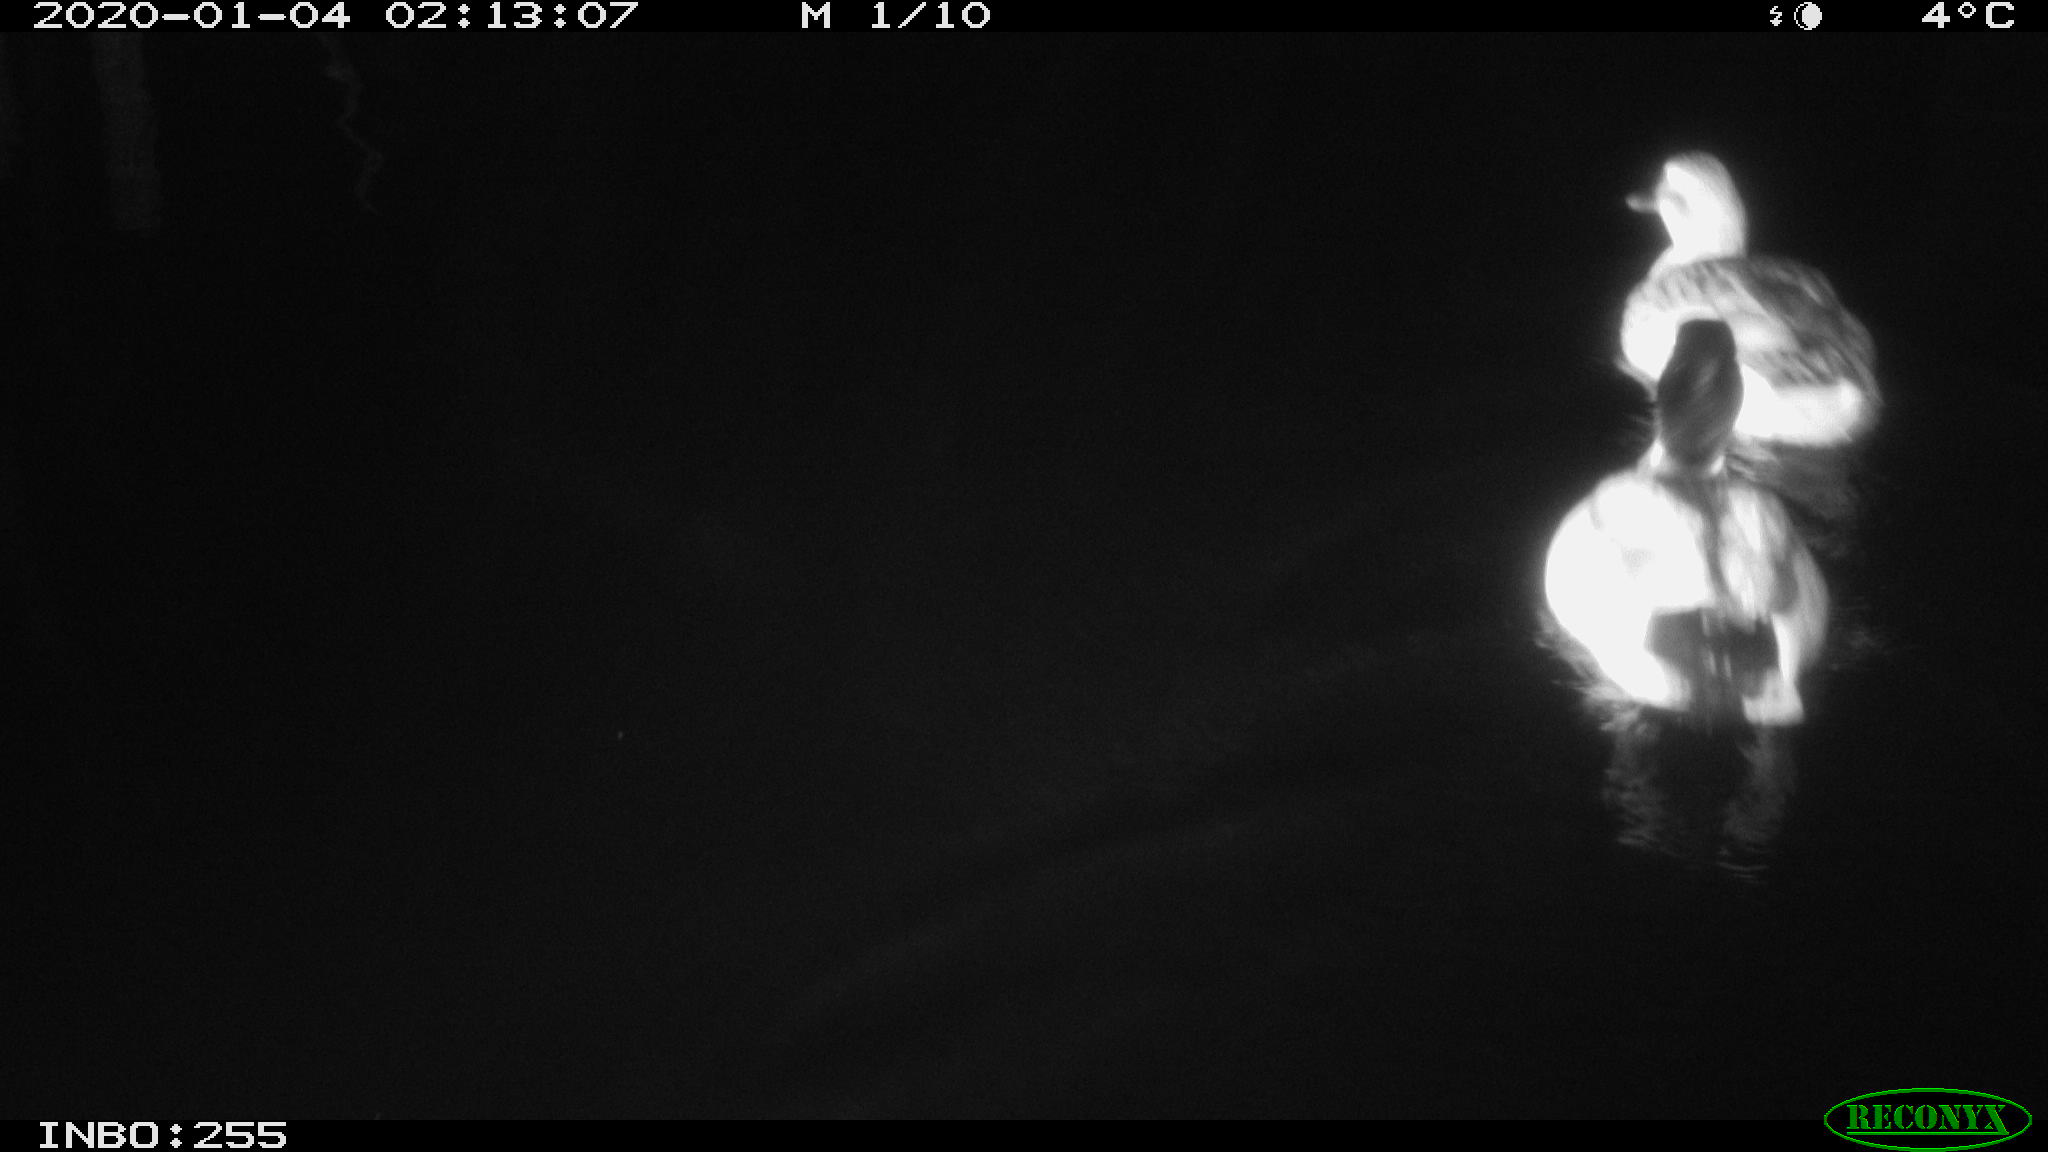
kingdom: Animalia
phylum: Chordata
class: Aves
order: Anseriformes
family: Anatidae
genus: Anas
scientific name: Anas platyrhynchos
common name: Mallard
